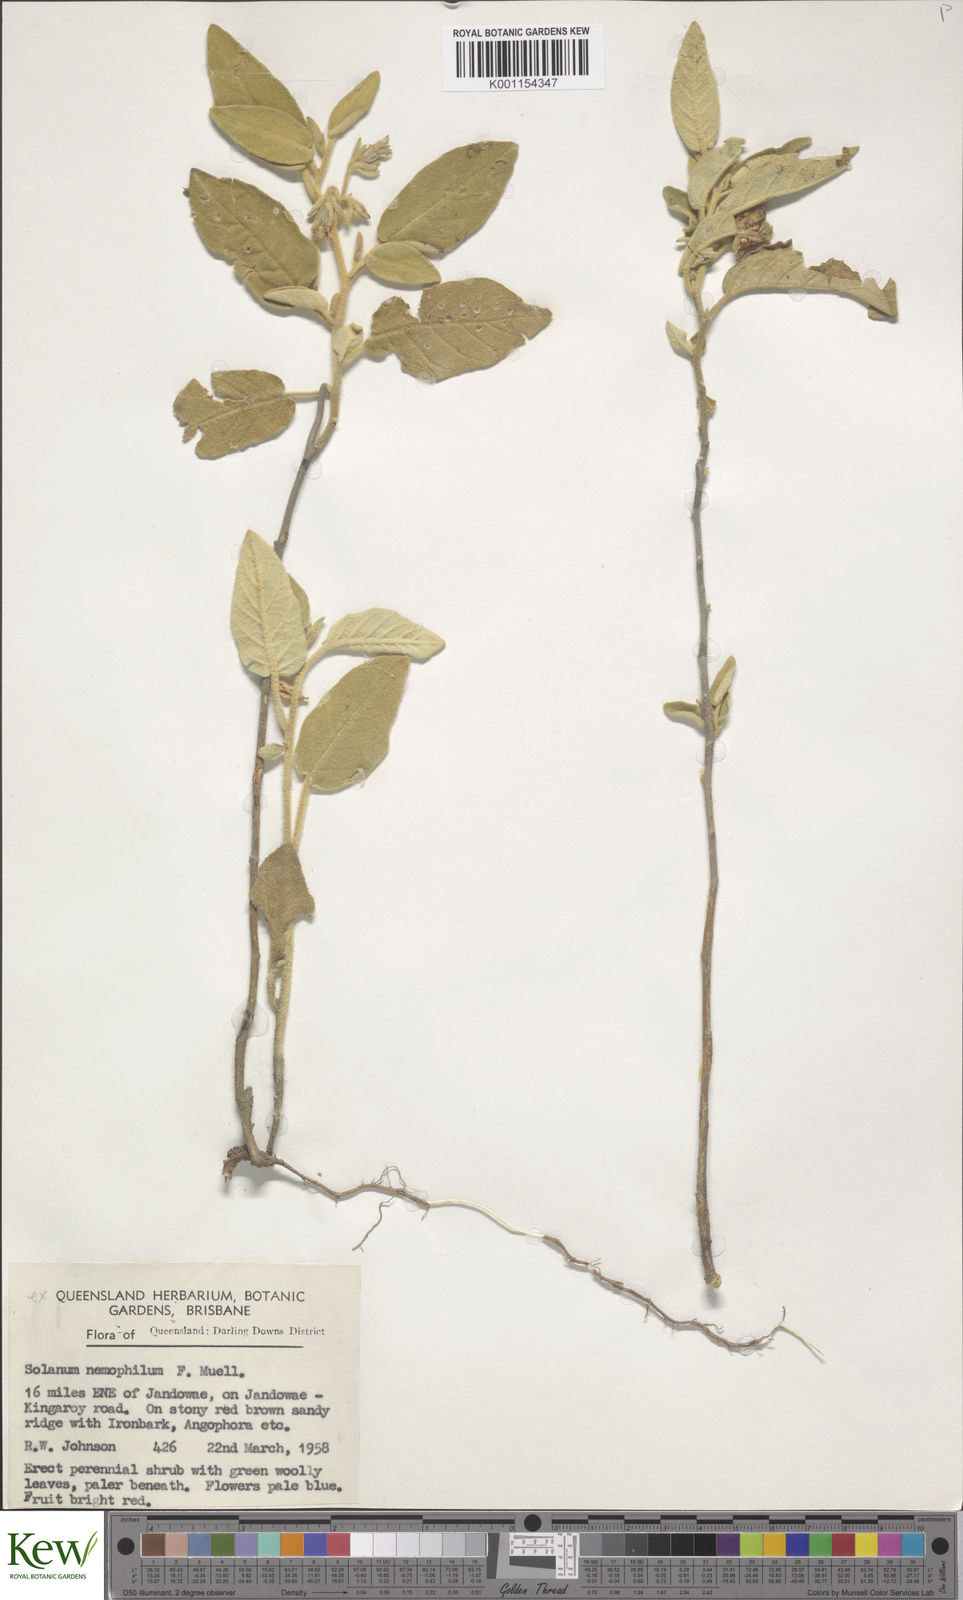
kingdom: Plantae
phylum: Tracheophyta
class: Magnoliopsida
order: Solanales
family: Solanaceae
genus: Solanum
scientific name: Solanum nemophilum
